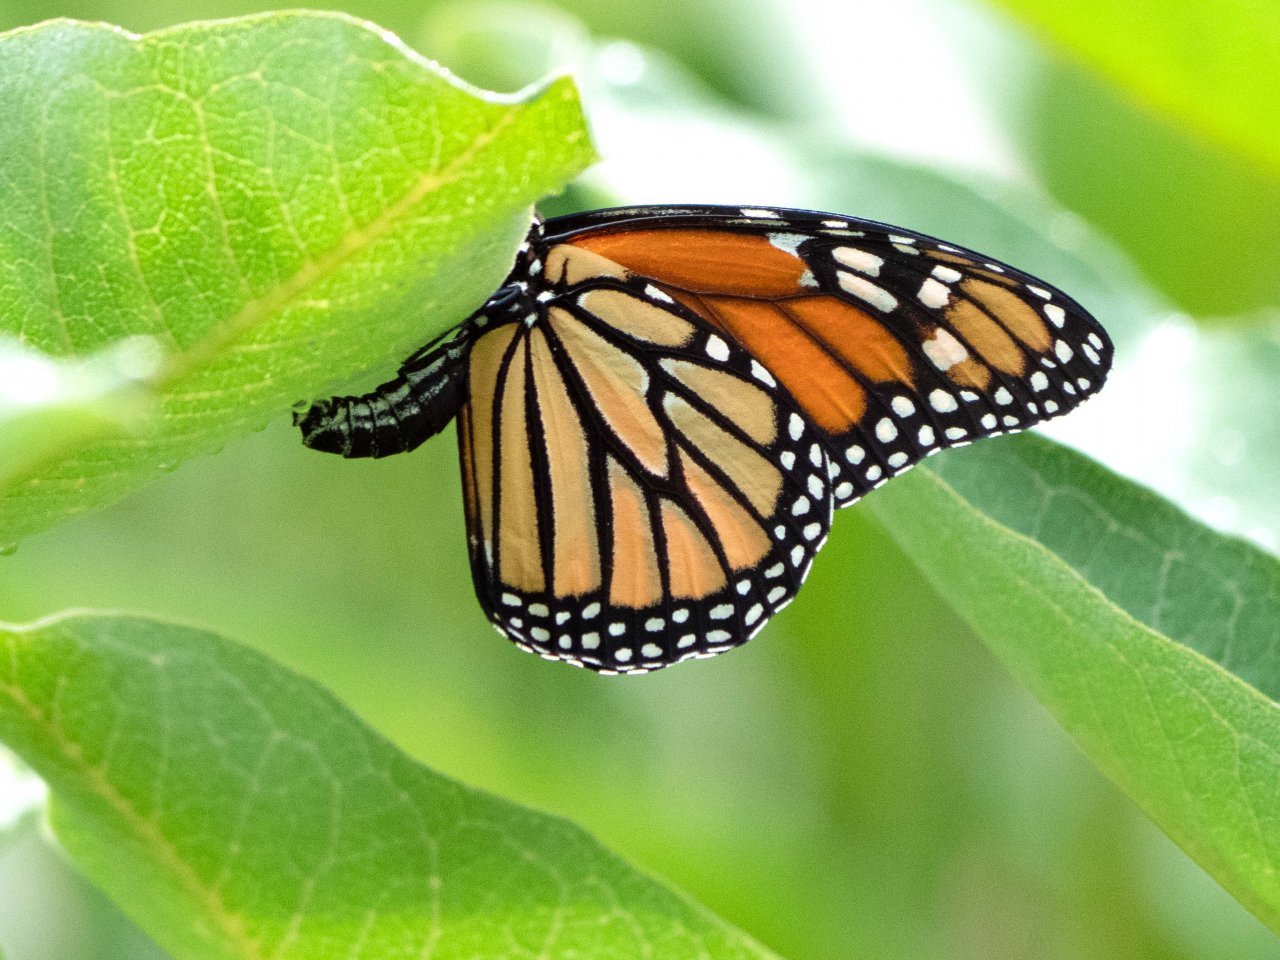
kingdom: Animalia
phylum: Arthropoda
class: Insecta
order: Lepidoptera
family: Nymphalidae
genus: Danaus
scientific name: Danaus plexippus
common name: Monarch
